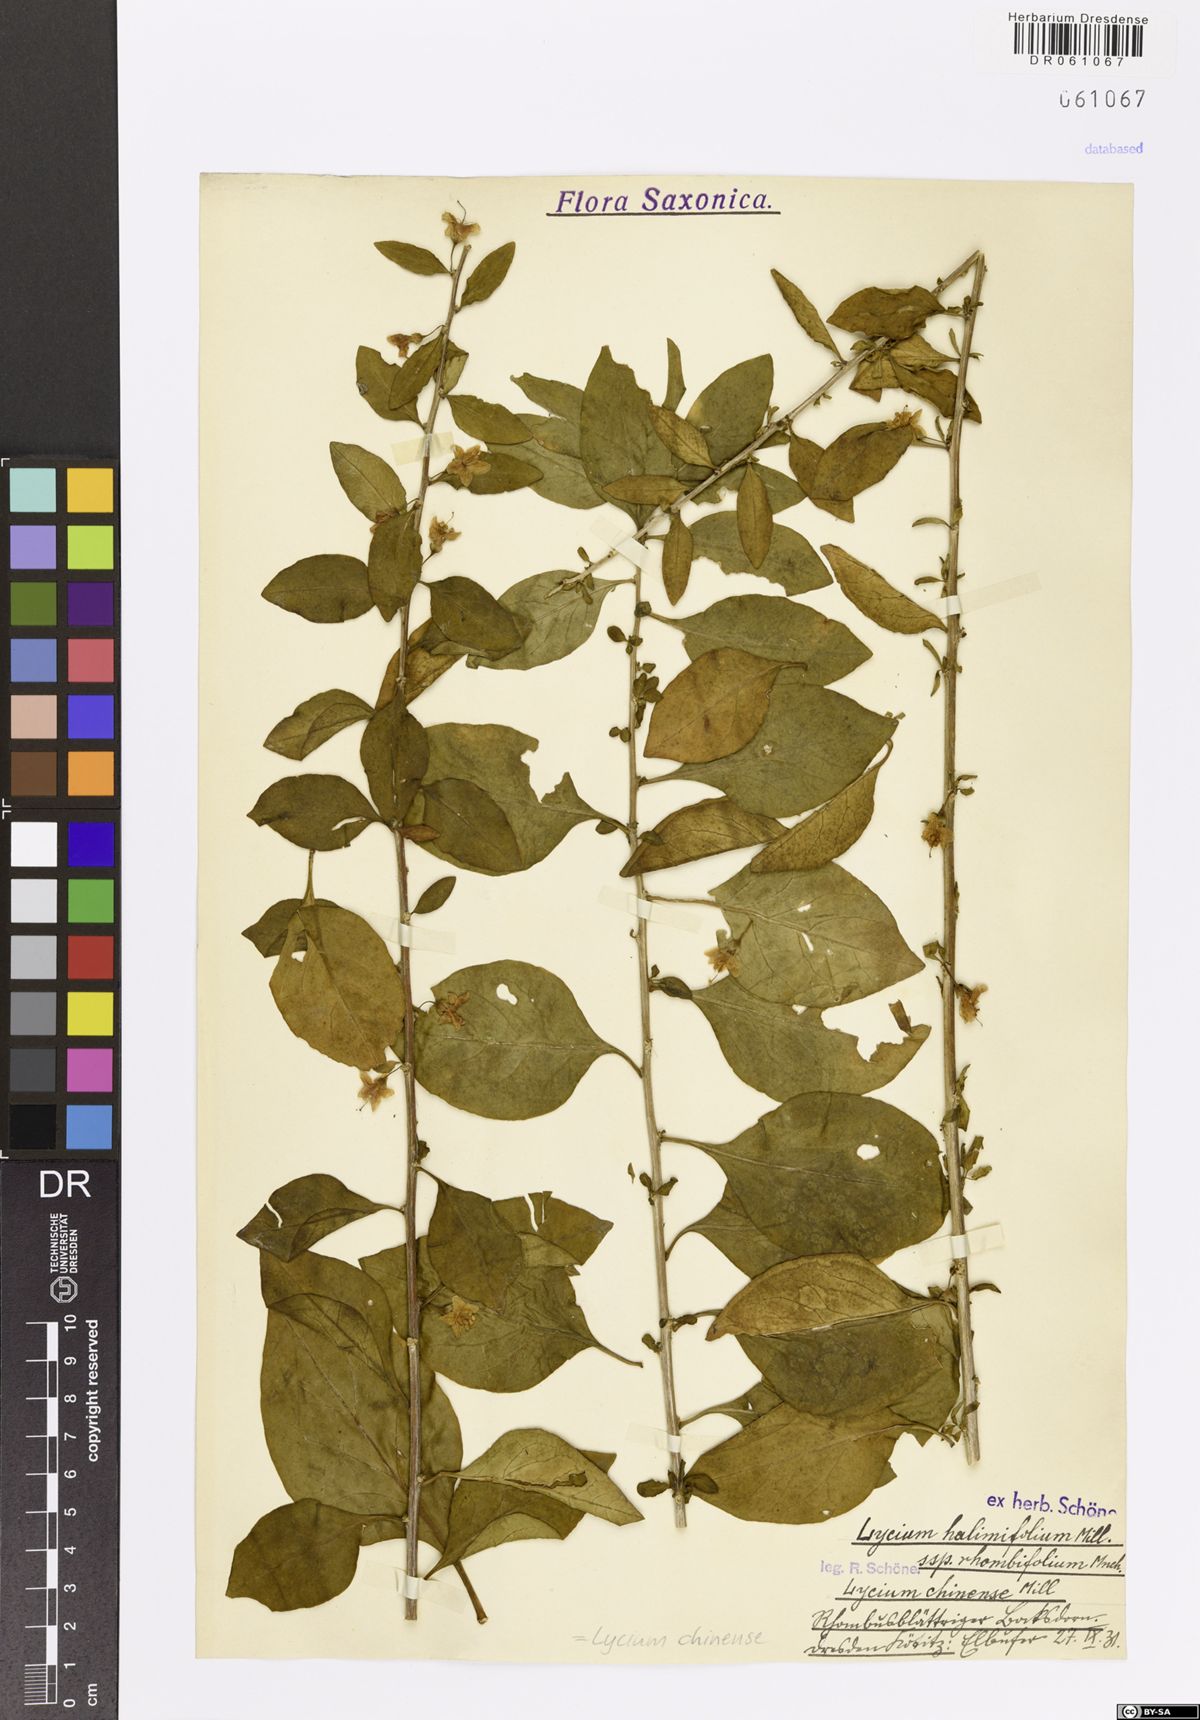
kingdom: Plantae
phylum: Tracheophyta
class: Magnoliopsida
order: Solanales
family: Solanaceae
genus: Lycium
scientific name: Lycium chinense
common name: Chinese teaplant
